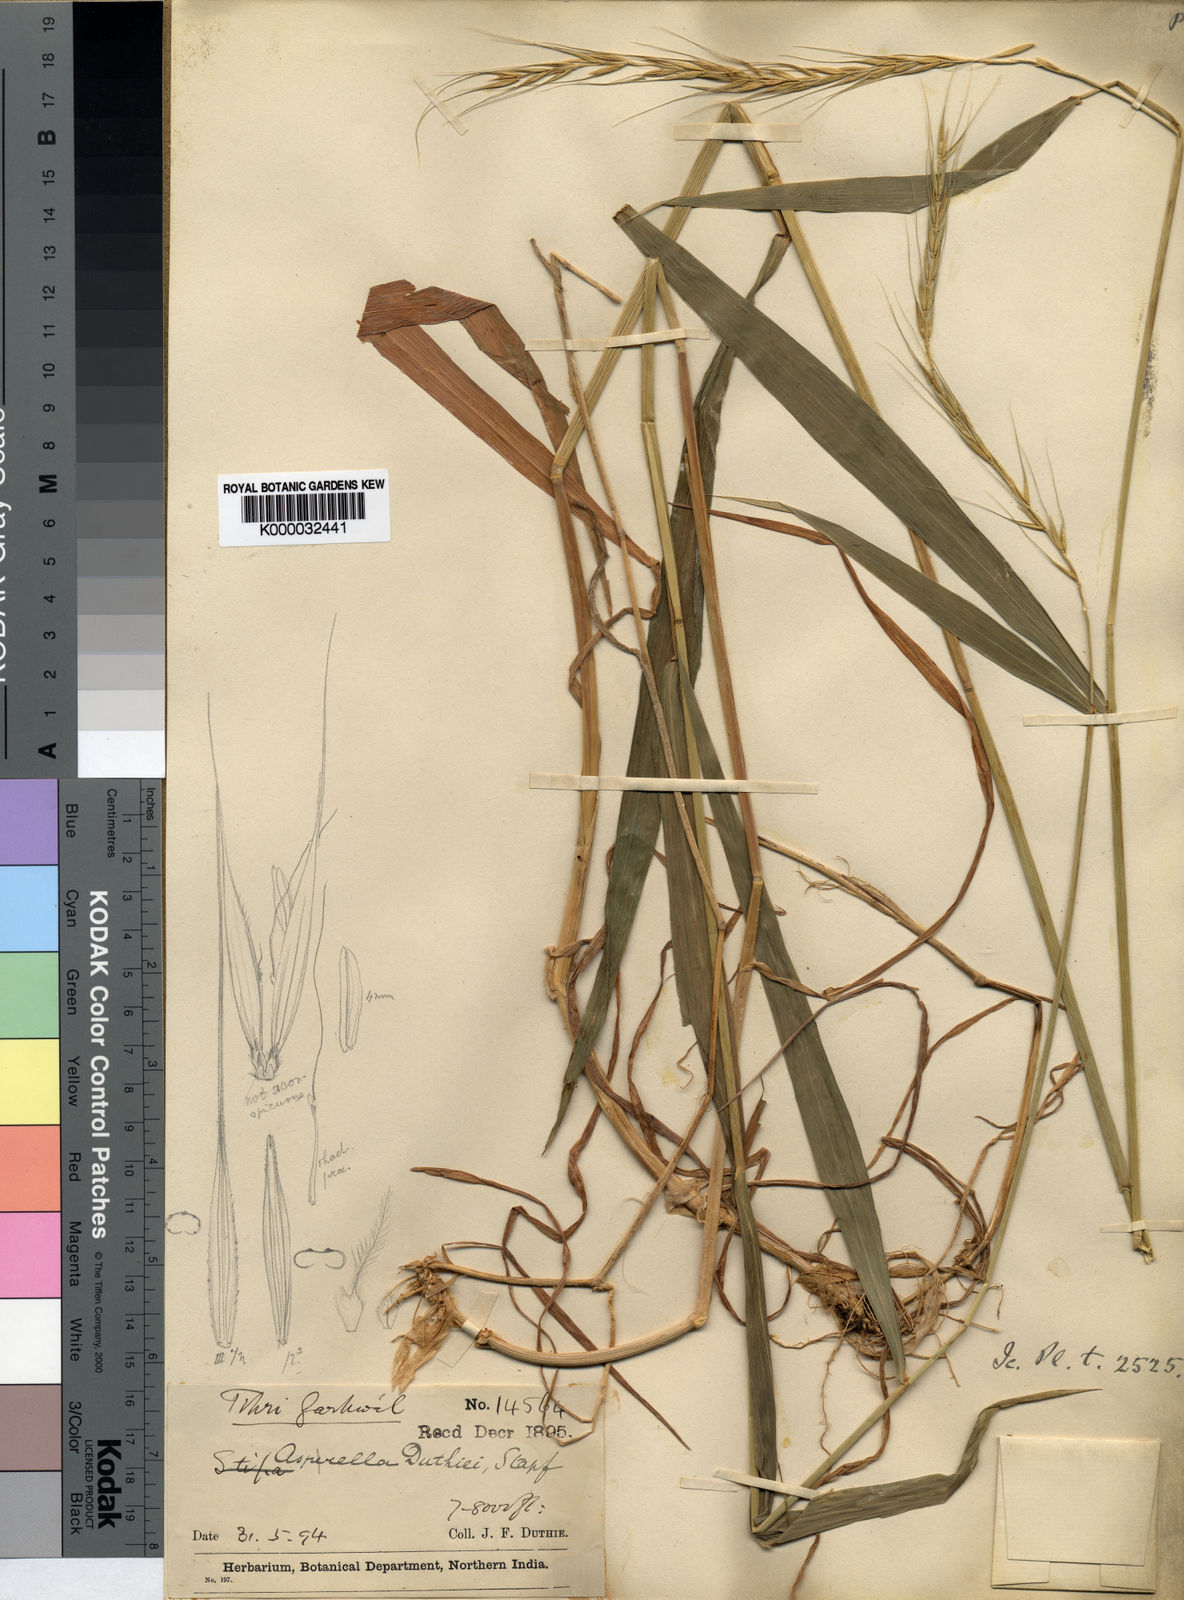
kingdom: Plantae
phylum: Tracheophyta
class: Liliopsida
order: Poales
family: Poaceae
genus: Leymus
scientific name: Leymus duthiei
